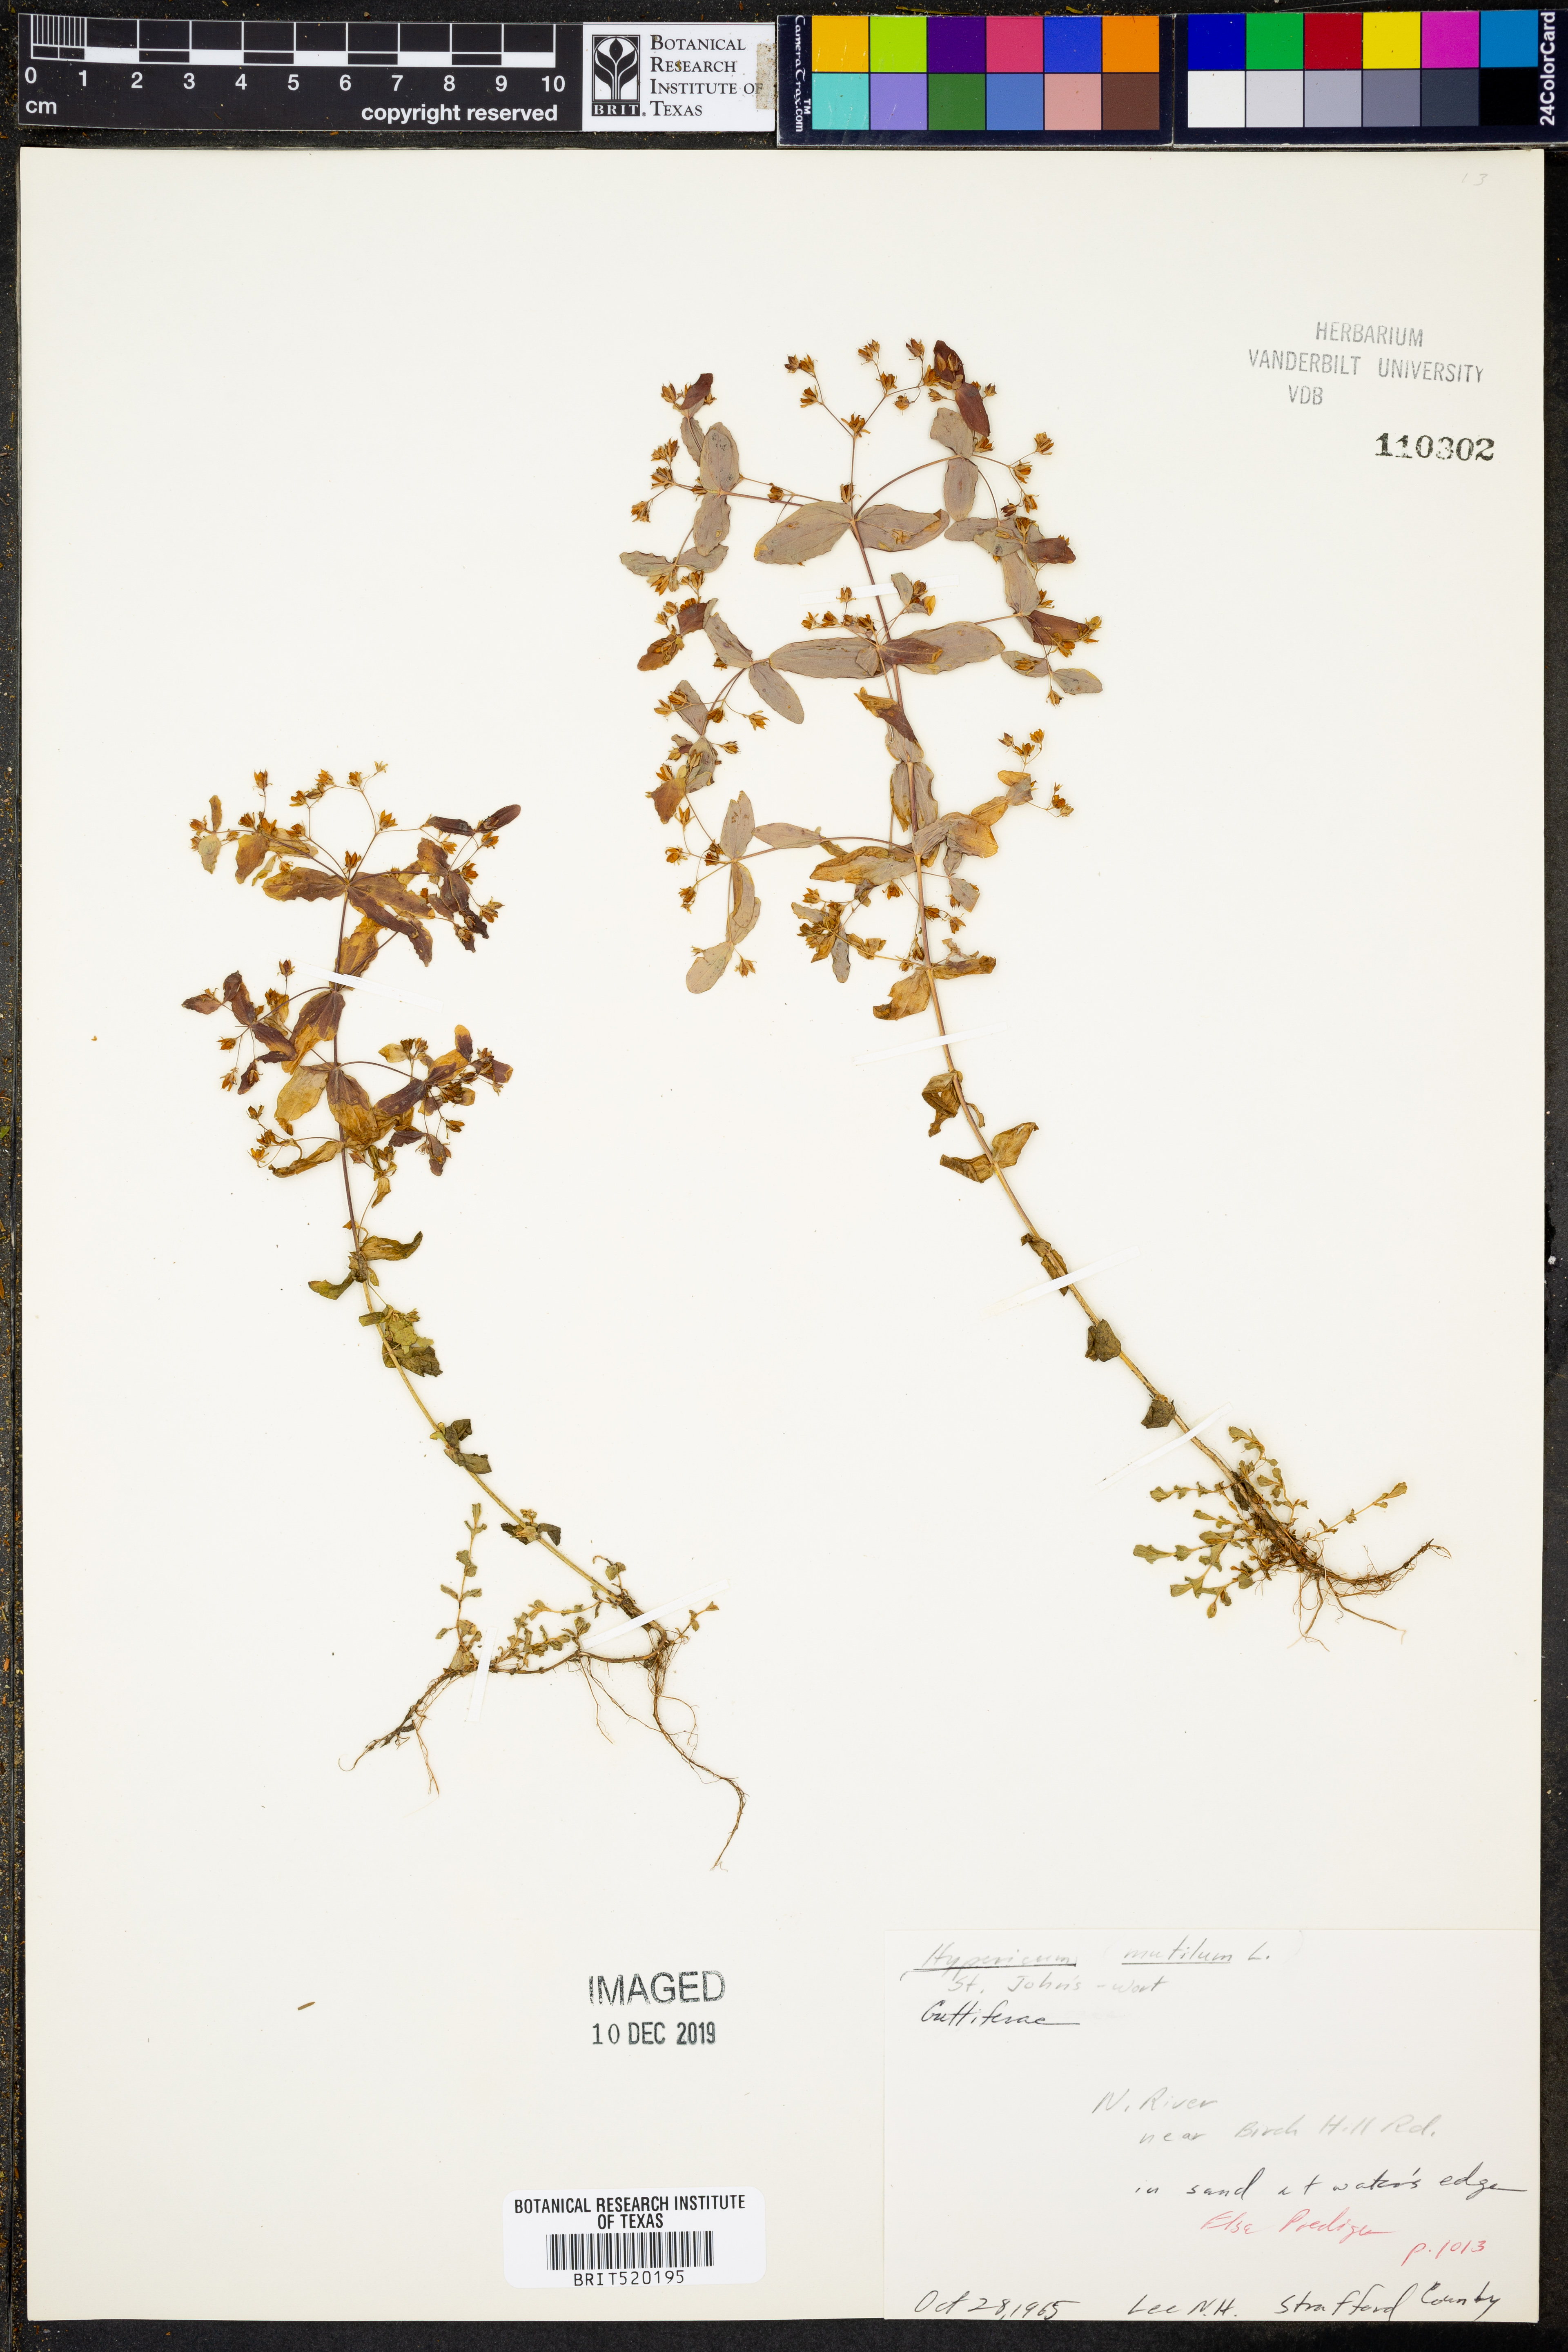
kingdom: Plantae
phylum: Tracheophyta
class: Magnoliopsida
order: Malpighiales
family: Hypericaceae
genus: Hypericum
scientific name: Hypericum mutilum
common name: Dwarf st. john's-wort
